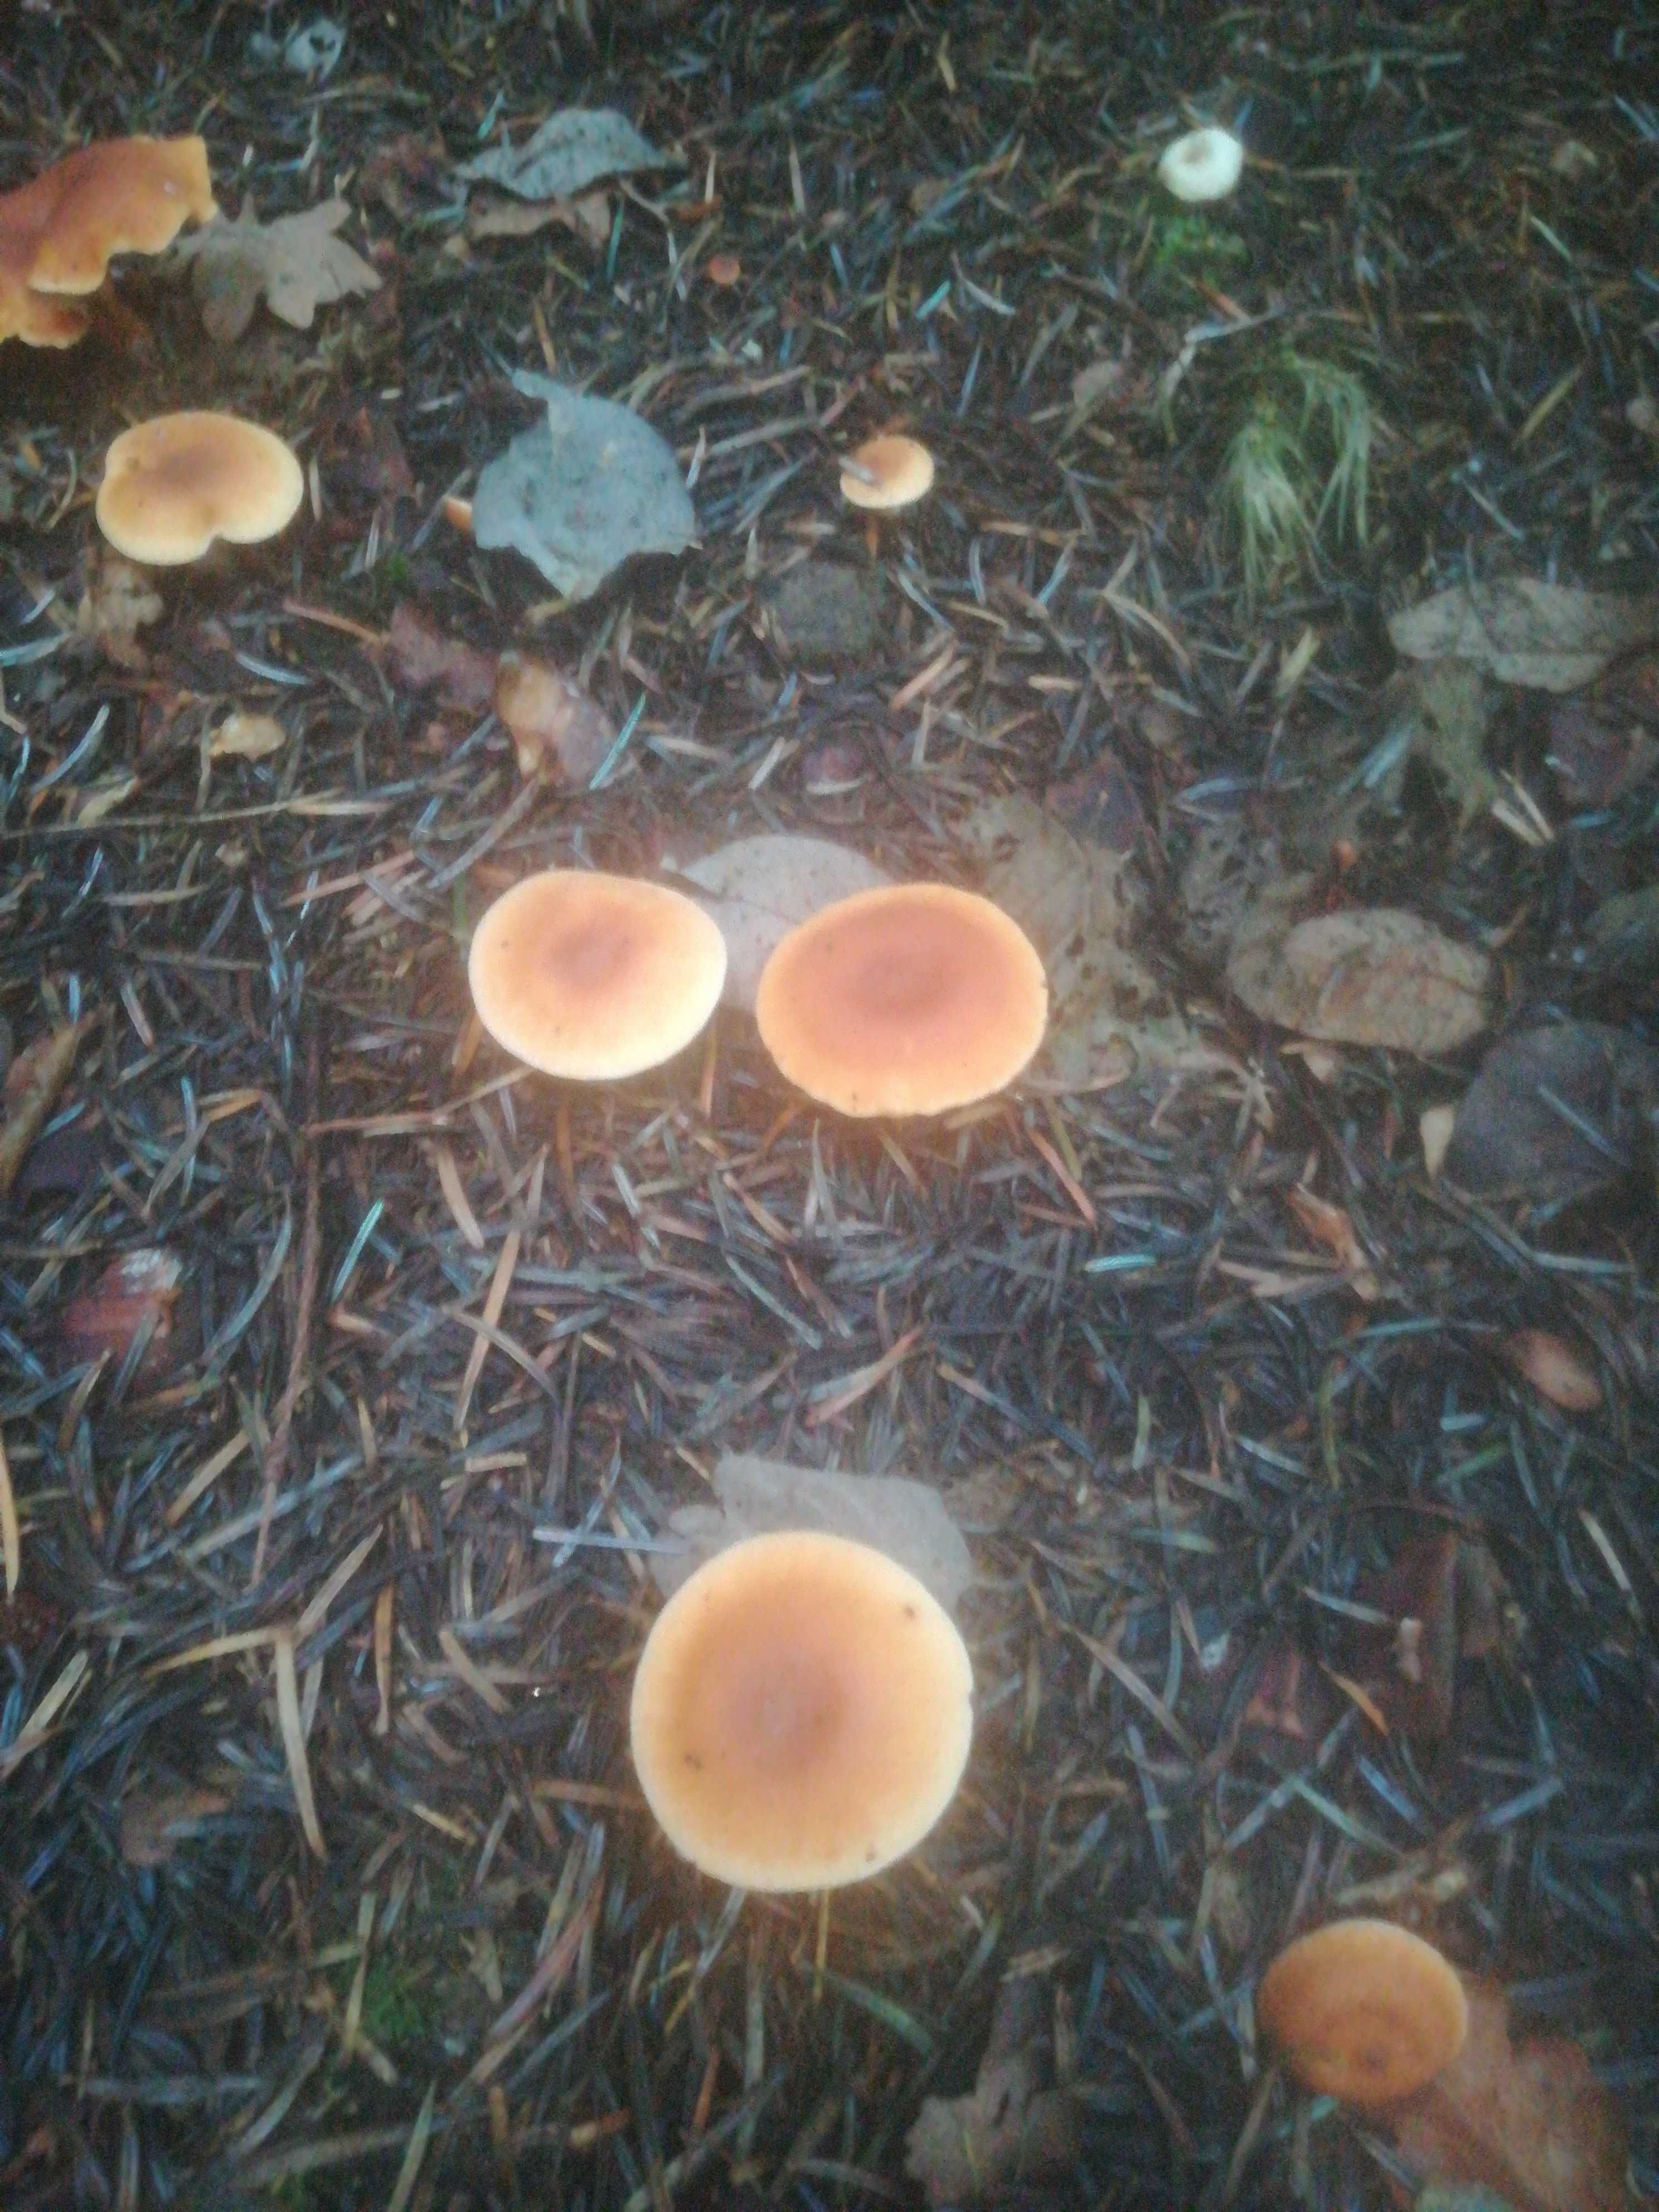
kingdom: Fungi
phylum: Basidiomycota
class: Agaricomycetes
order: Agaricales
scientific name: Agaricales
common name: champignonordenen
